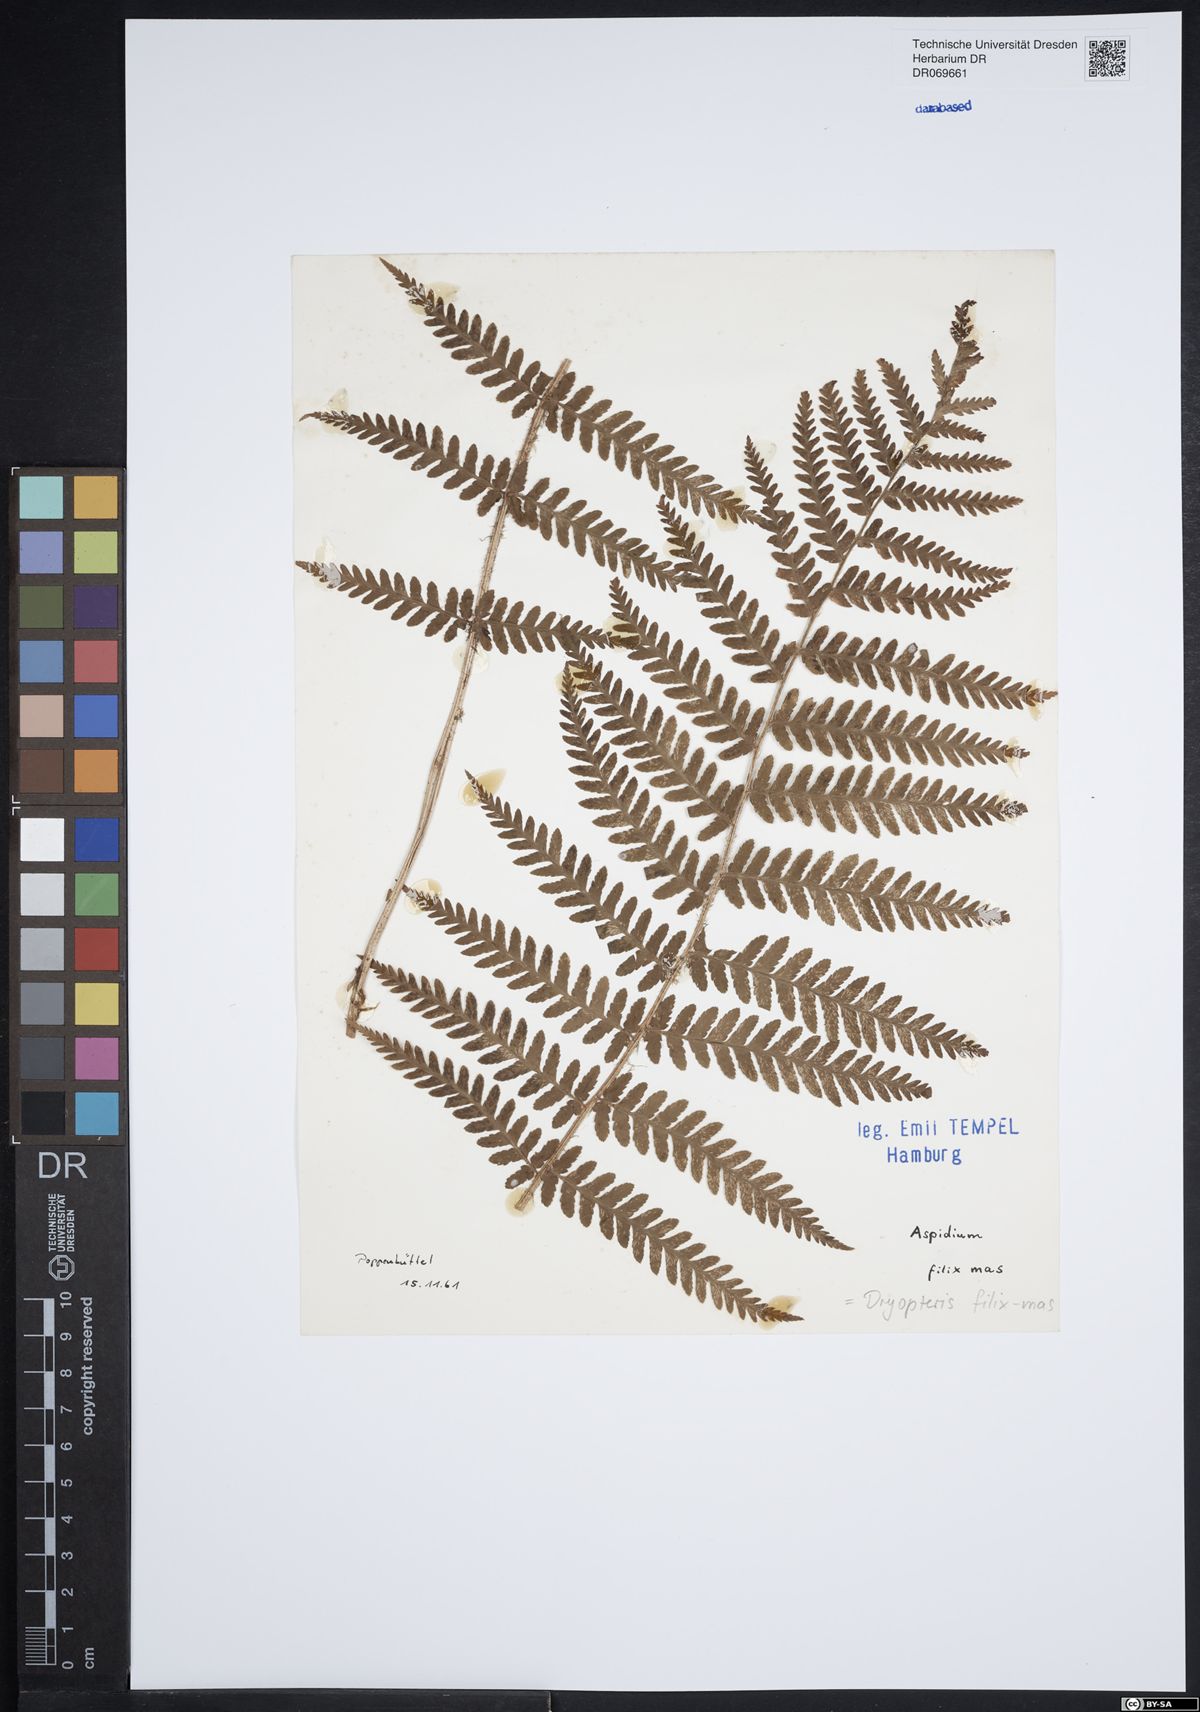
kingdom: Plantae
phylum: Tracheophyta
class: Polypodiopsida
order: Polypodiales
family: Dryopteridaceae
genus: Dryopteris
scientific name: Dryopteris filix-mas
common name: Male fern
